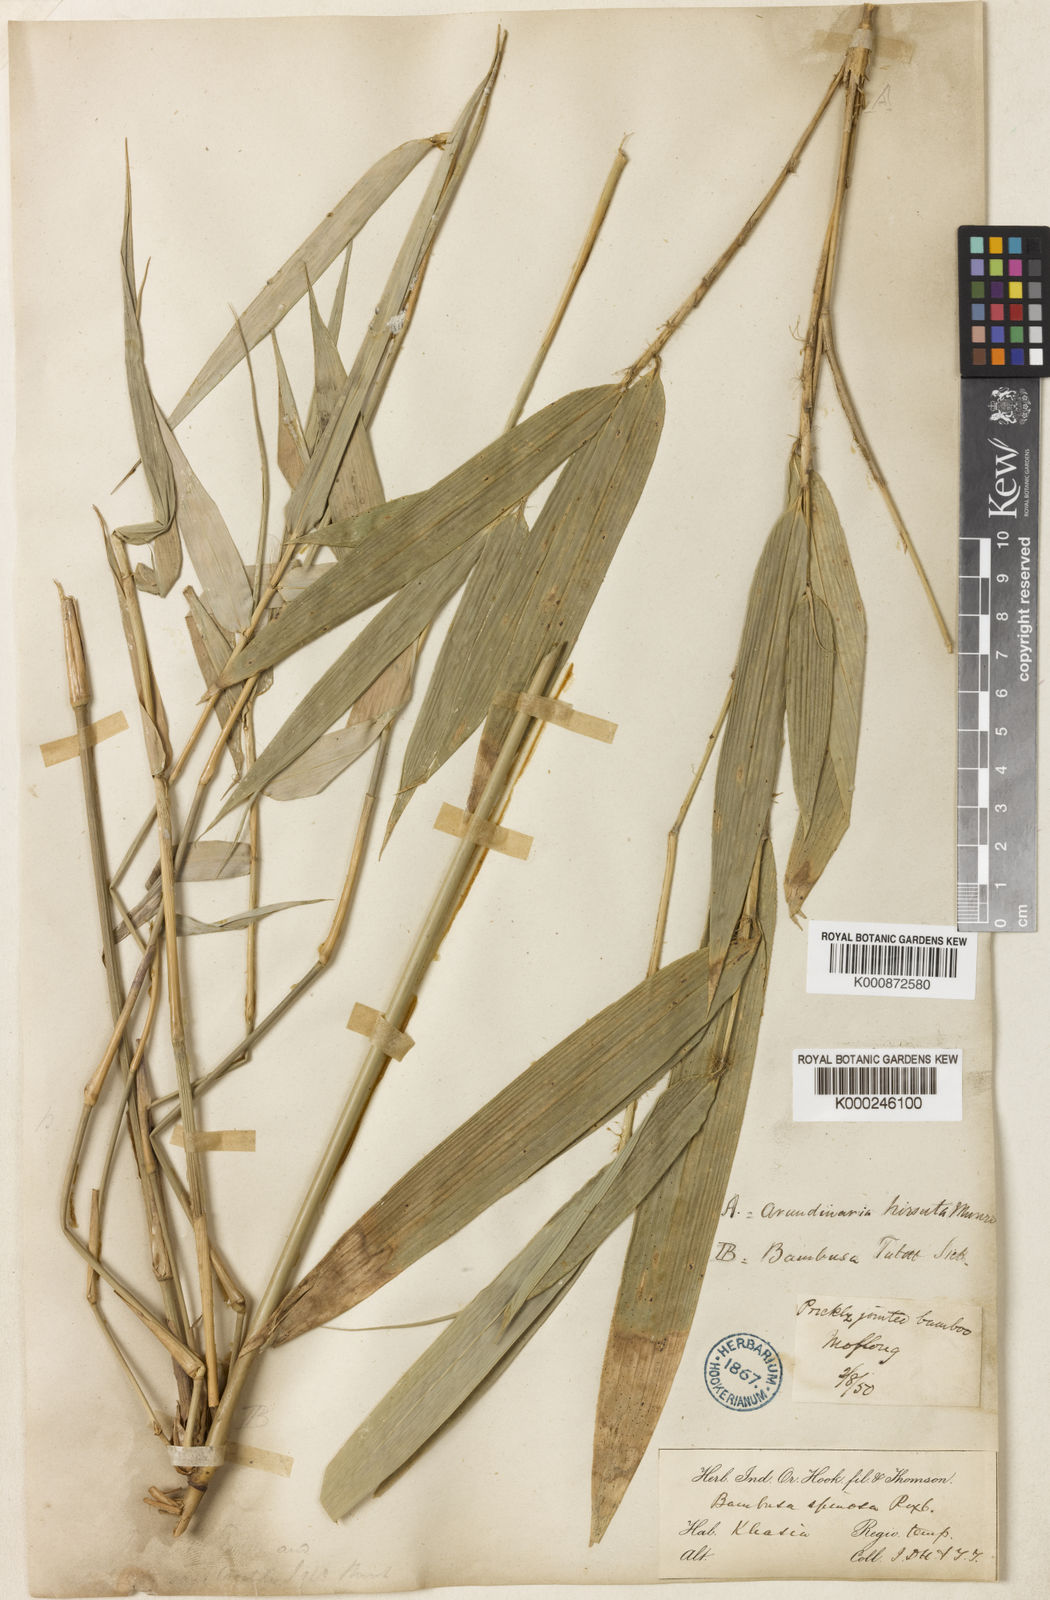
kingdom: Plantae
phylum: Tracheophyta
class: Liliopsida
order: Poales
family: Poaceae
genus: Yushania
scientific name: Yushania hirsuta
